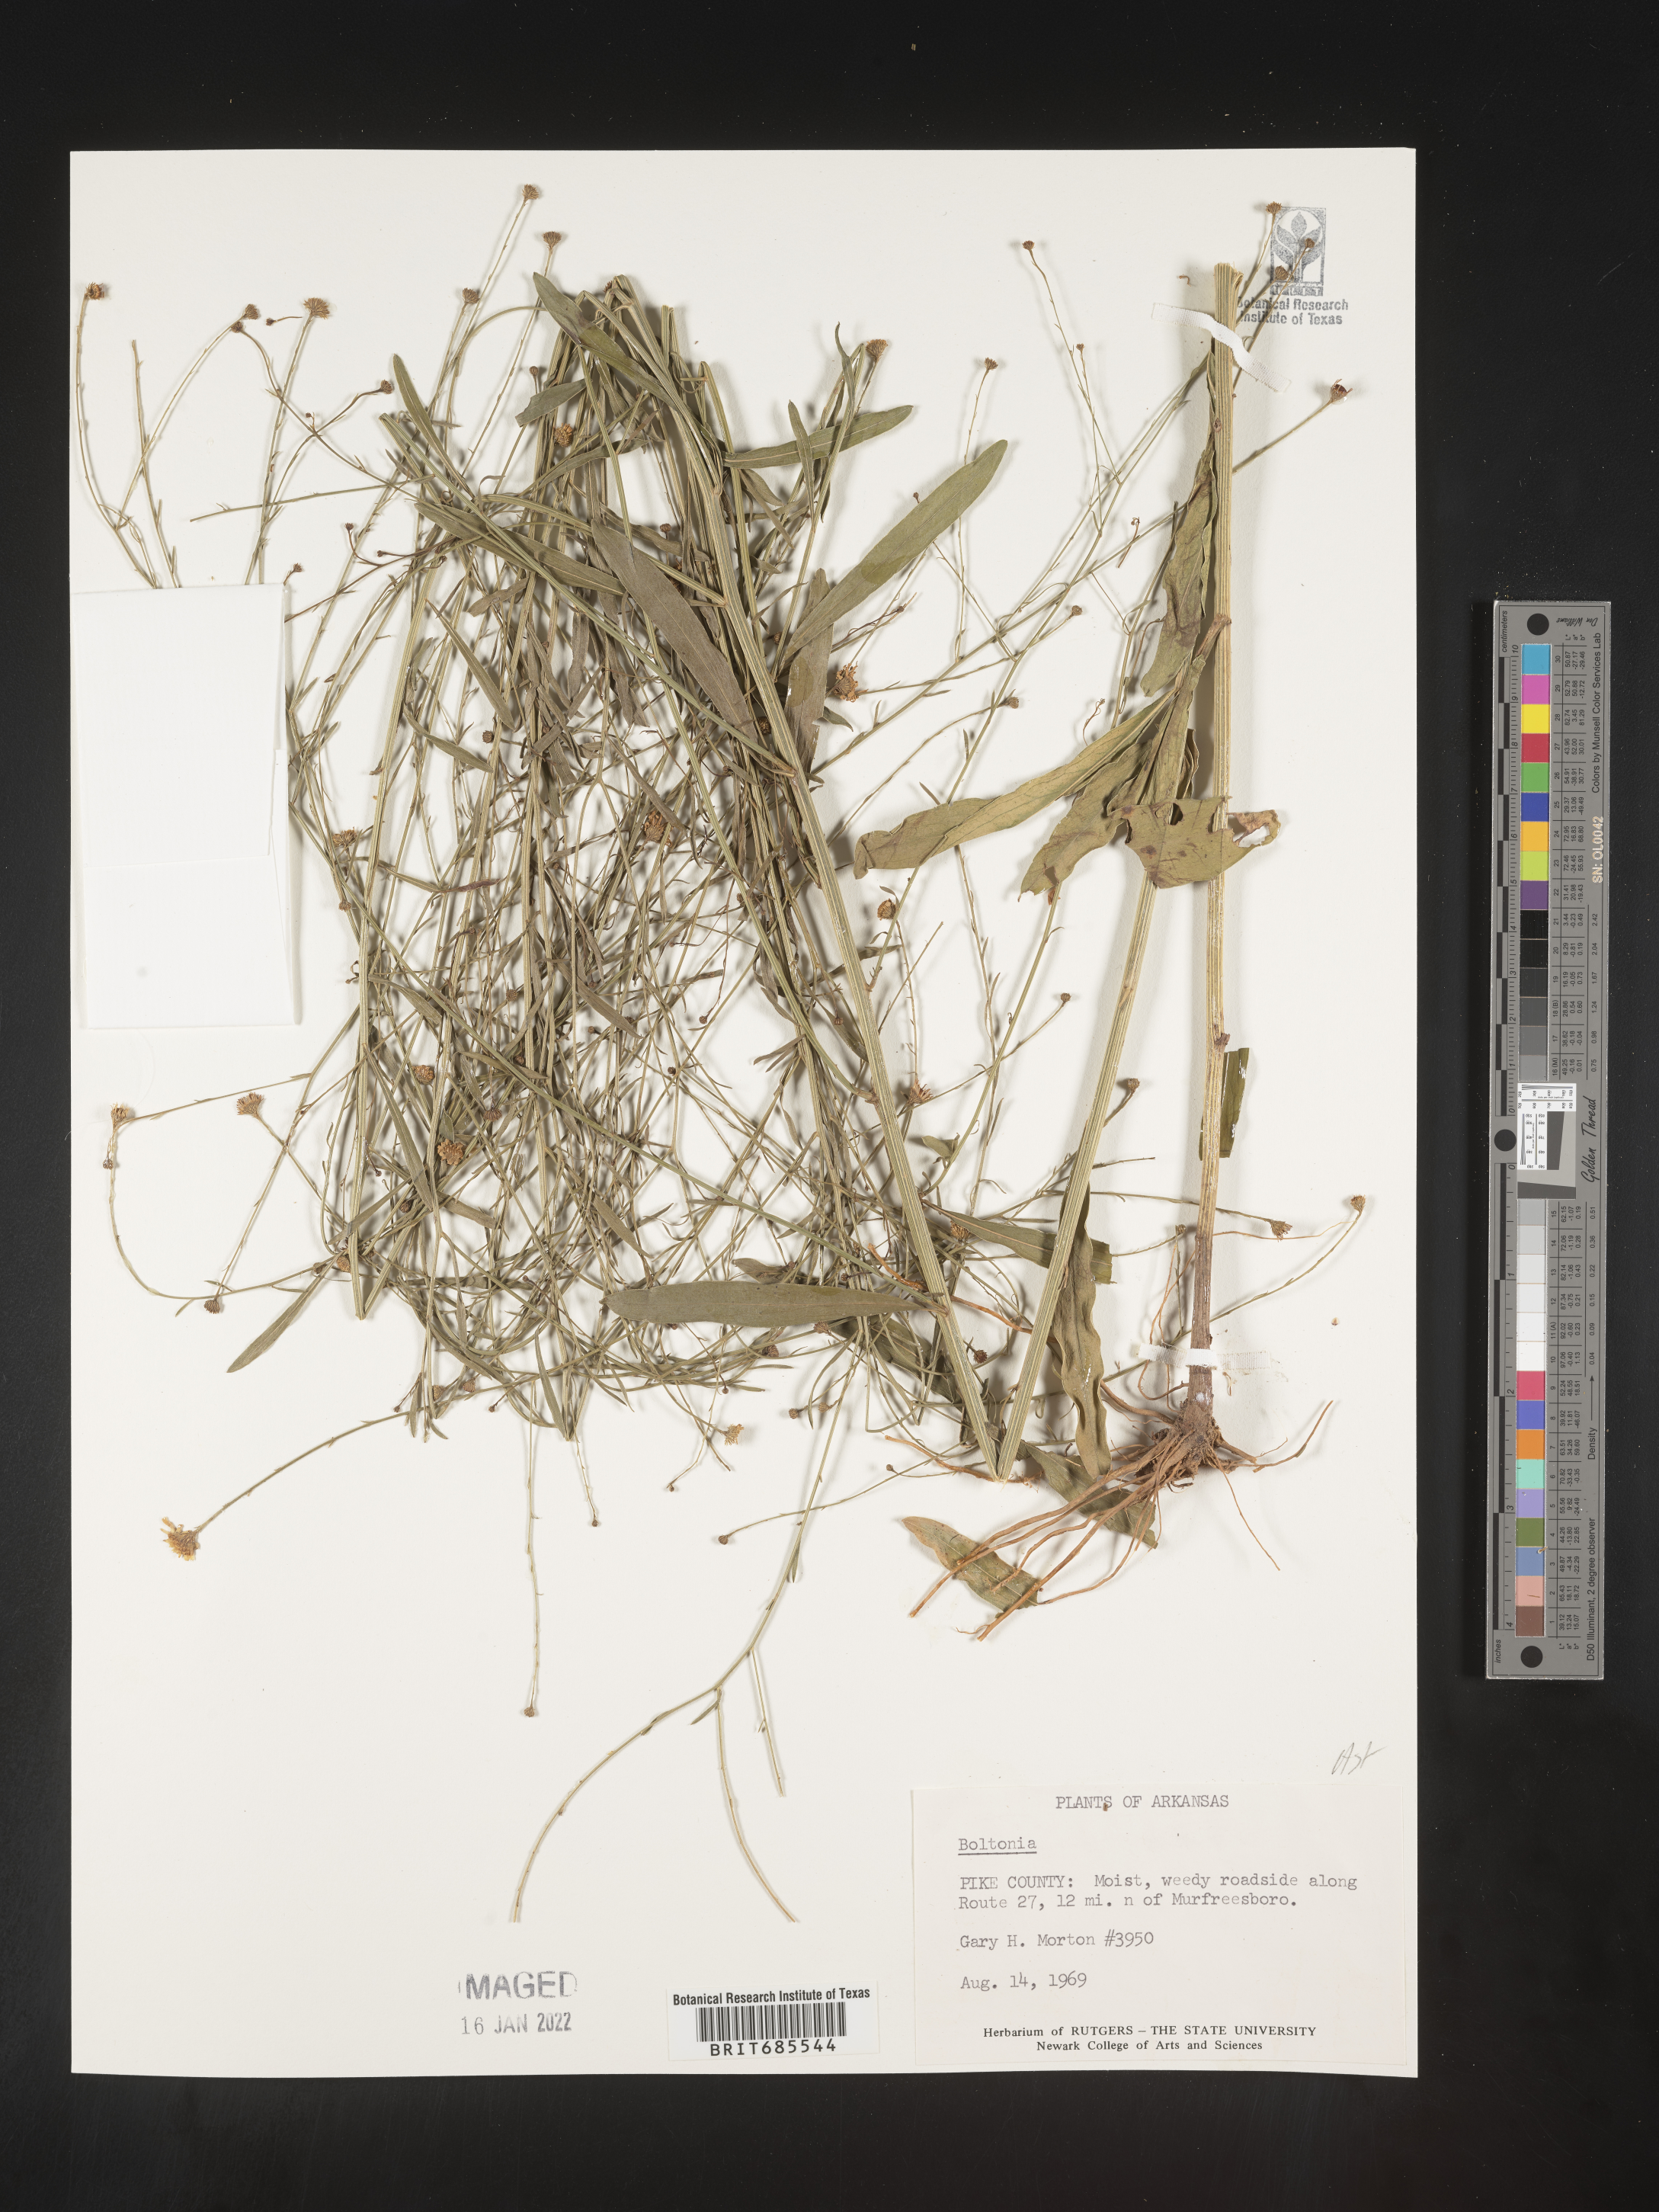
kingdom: Plantae
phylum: Tracheophyta
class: Magnoliopsida
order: Asterales
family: Asteraceae
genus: Boltonia
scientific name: Boltonia
